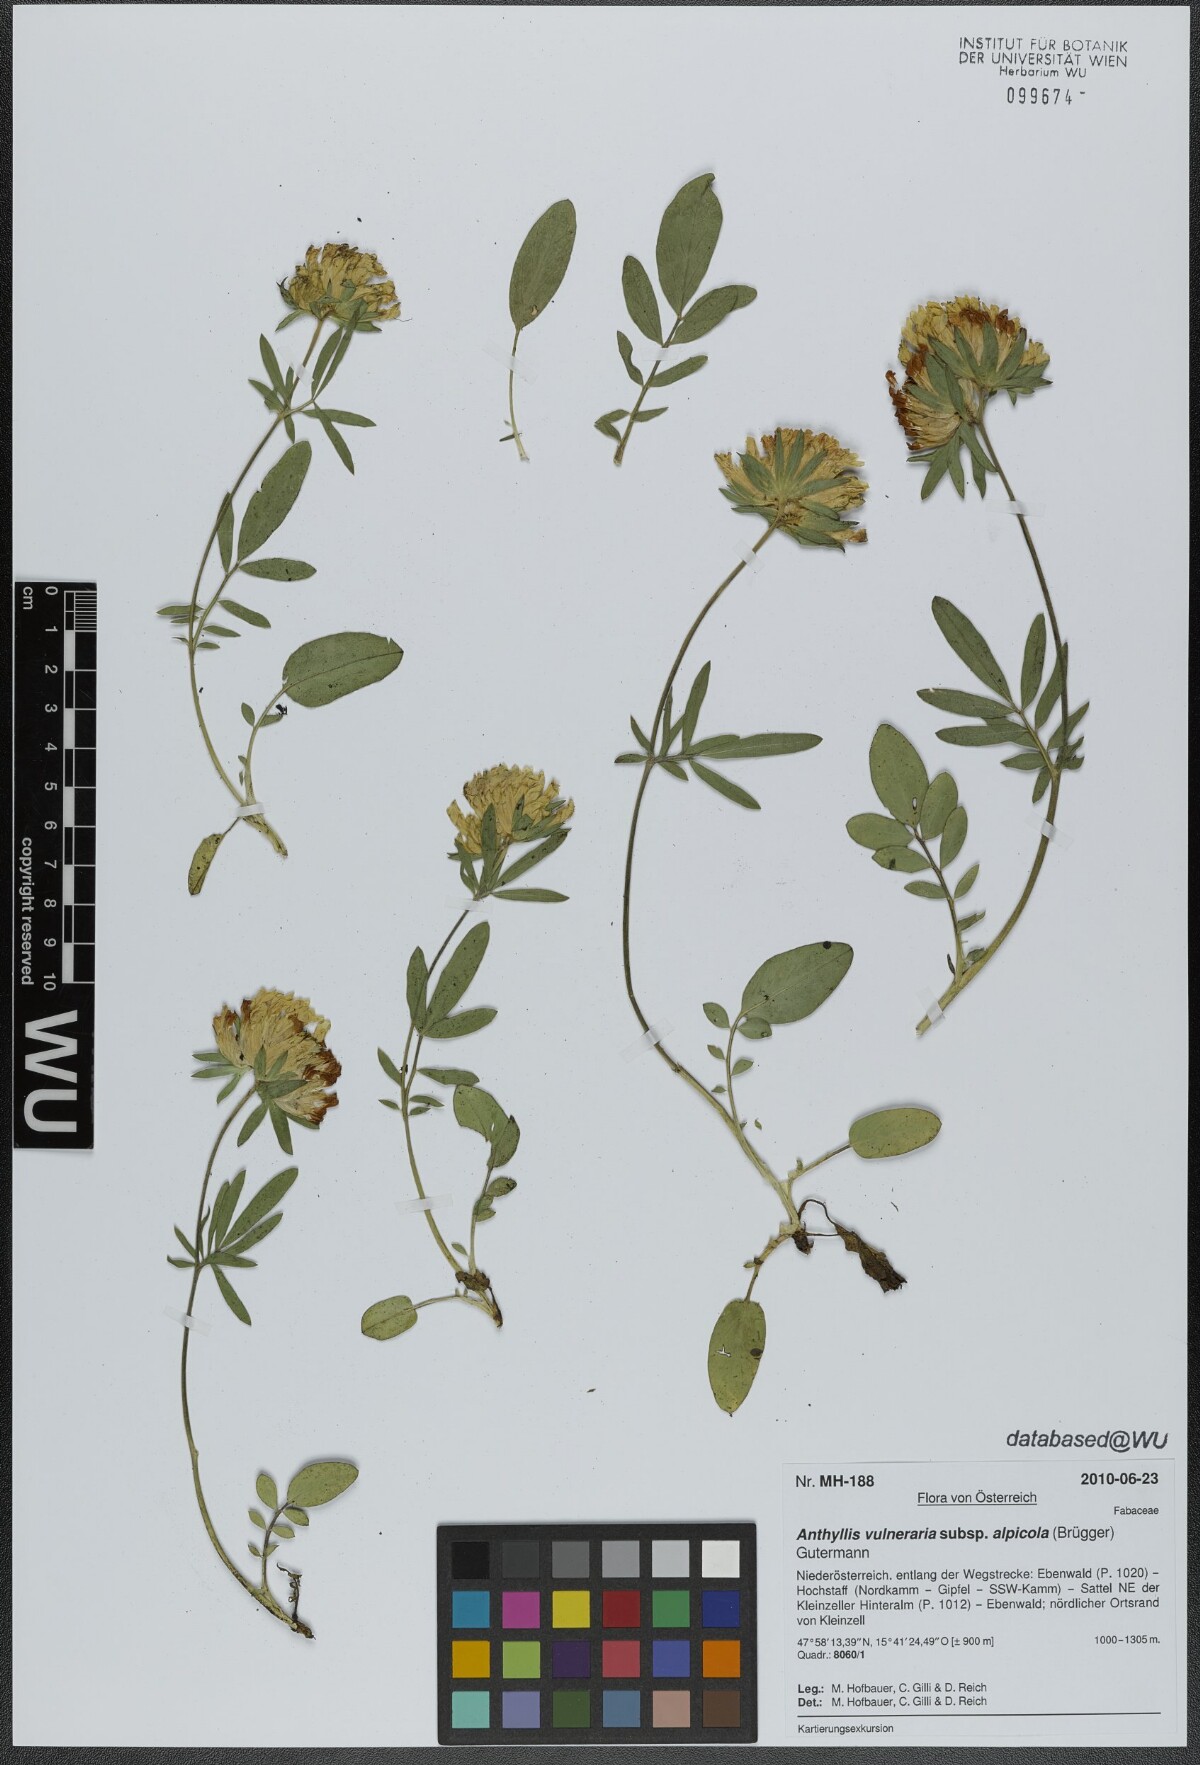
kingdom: Plantae
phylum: Tracheophyta
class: Magnoliopsida
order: Fabales
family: Fabaceae
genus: Anthyllis
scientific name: Anthyllis vulneraria
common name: Kidney vetch
